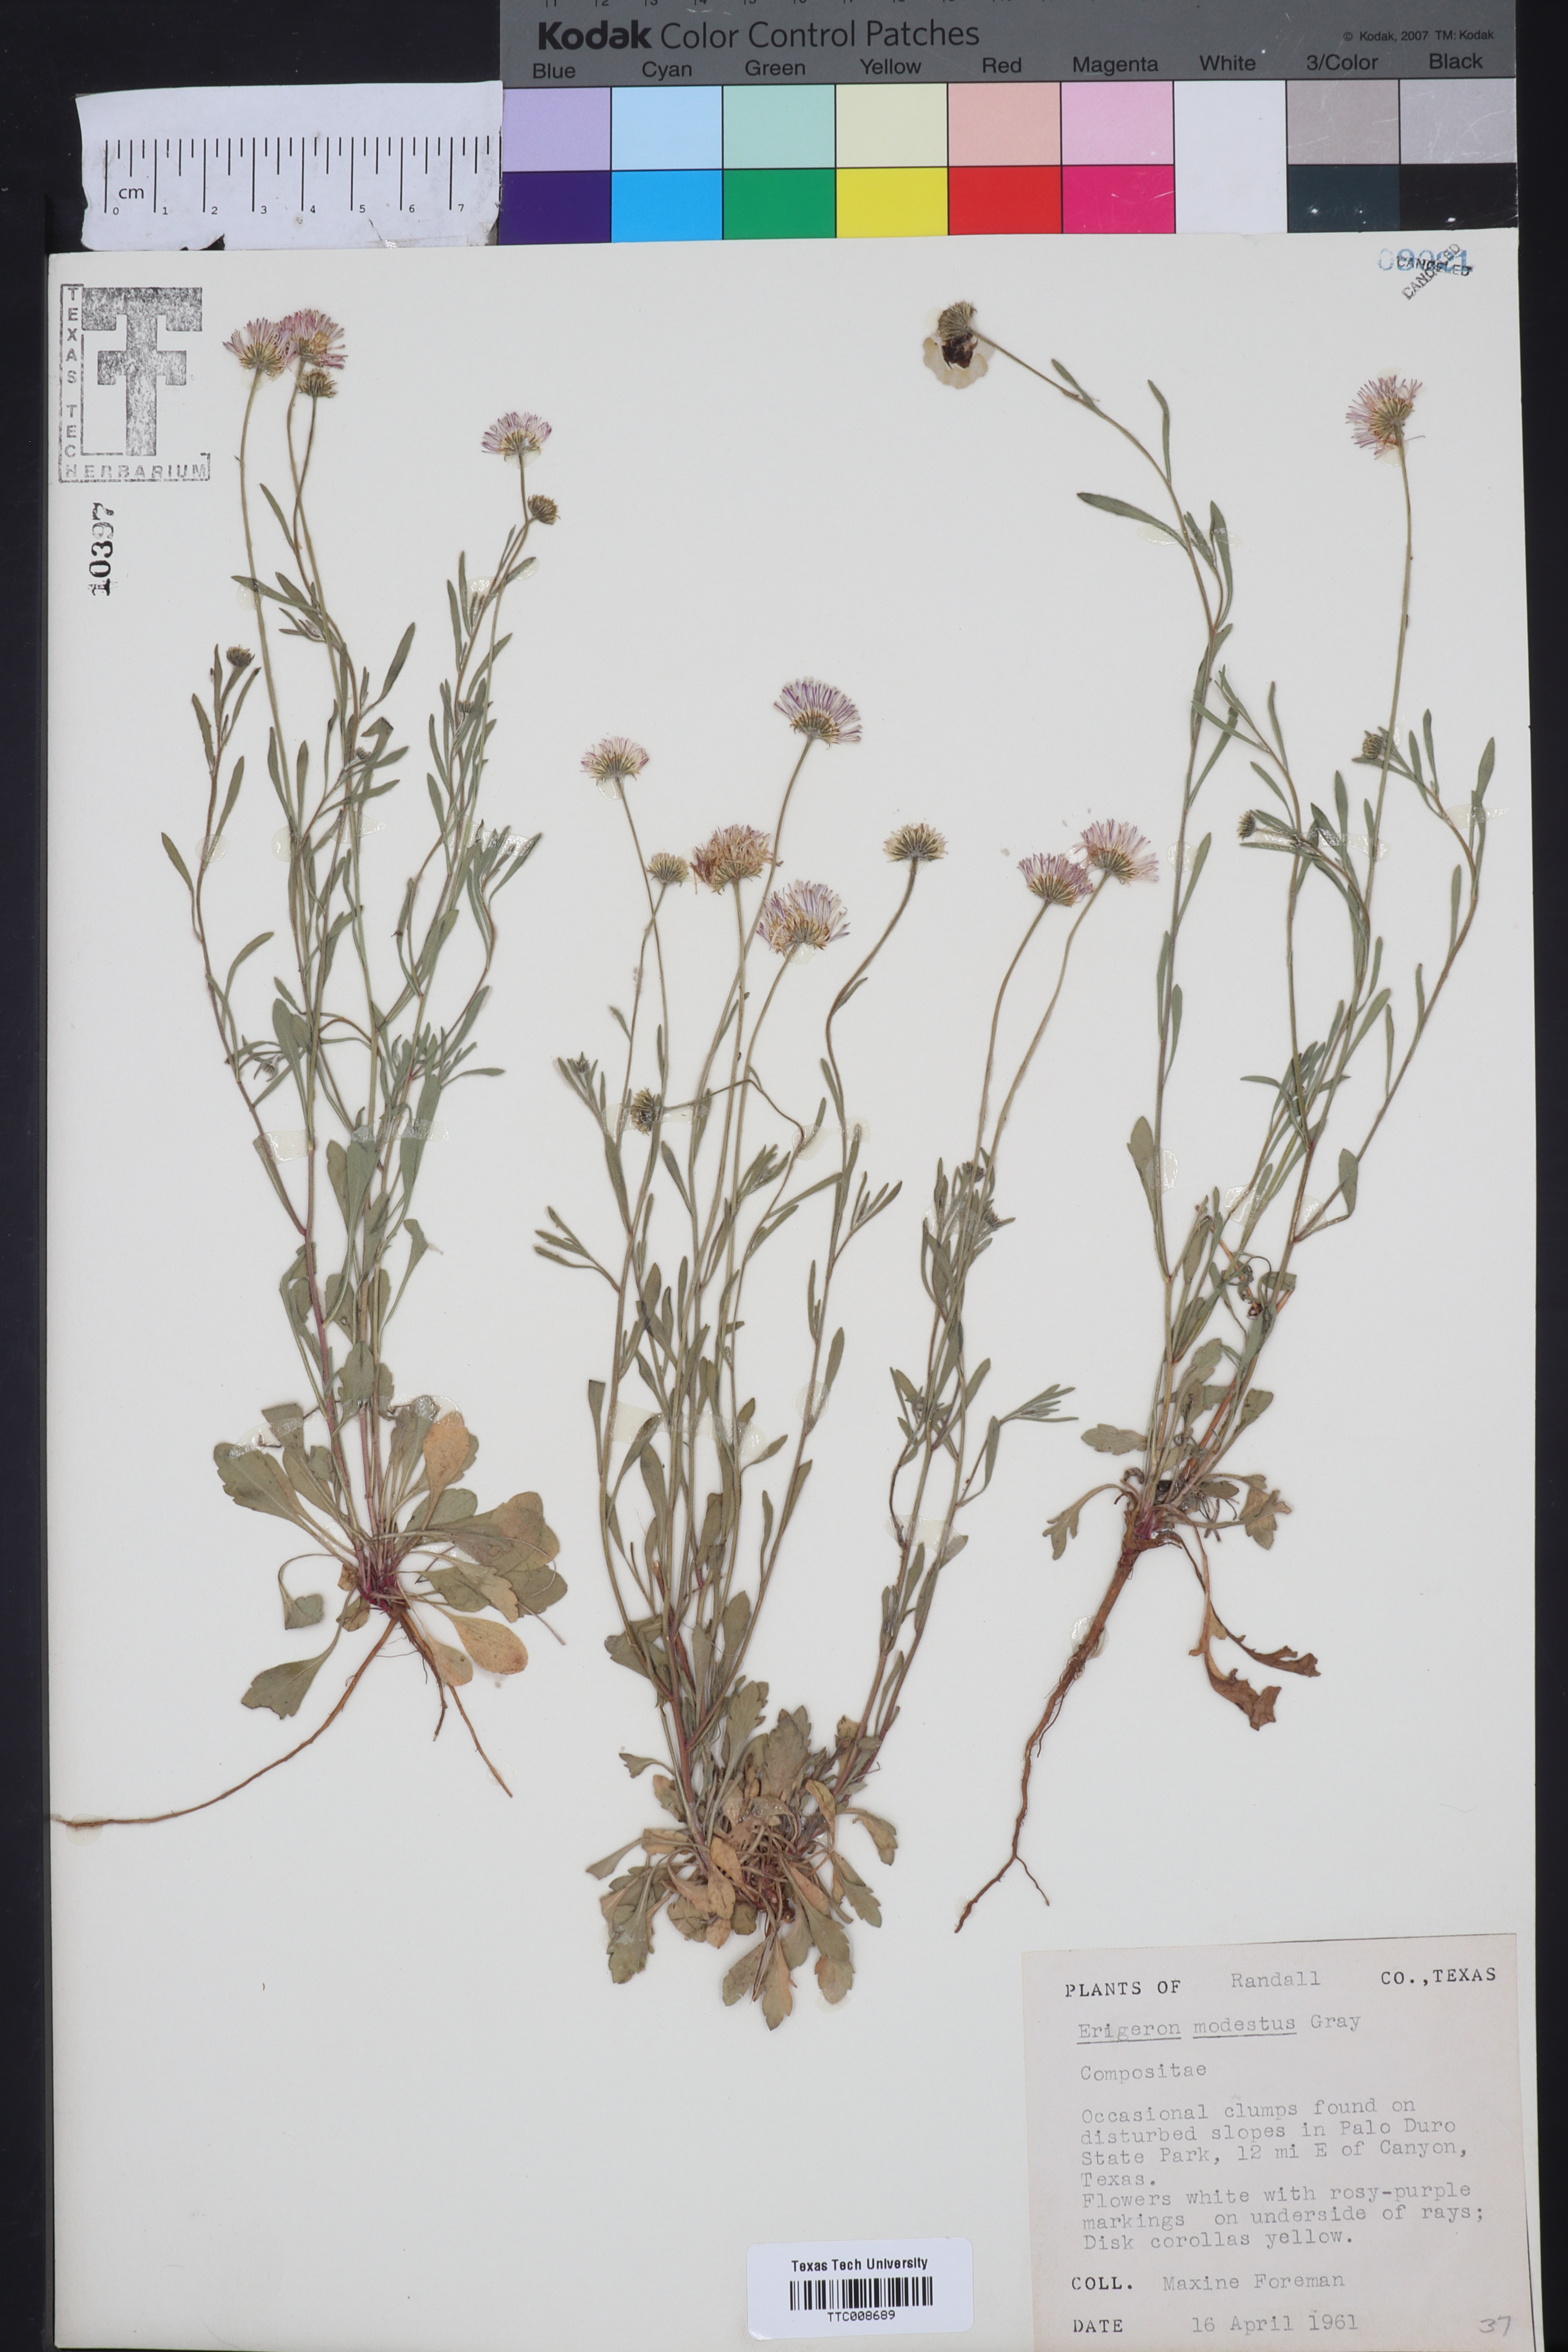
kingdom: Plantae
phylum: Tracheophyta
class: Magnoliopsida
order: Asterales
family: Asteraceae
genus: Erigeron
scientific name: Erigeron modestus
